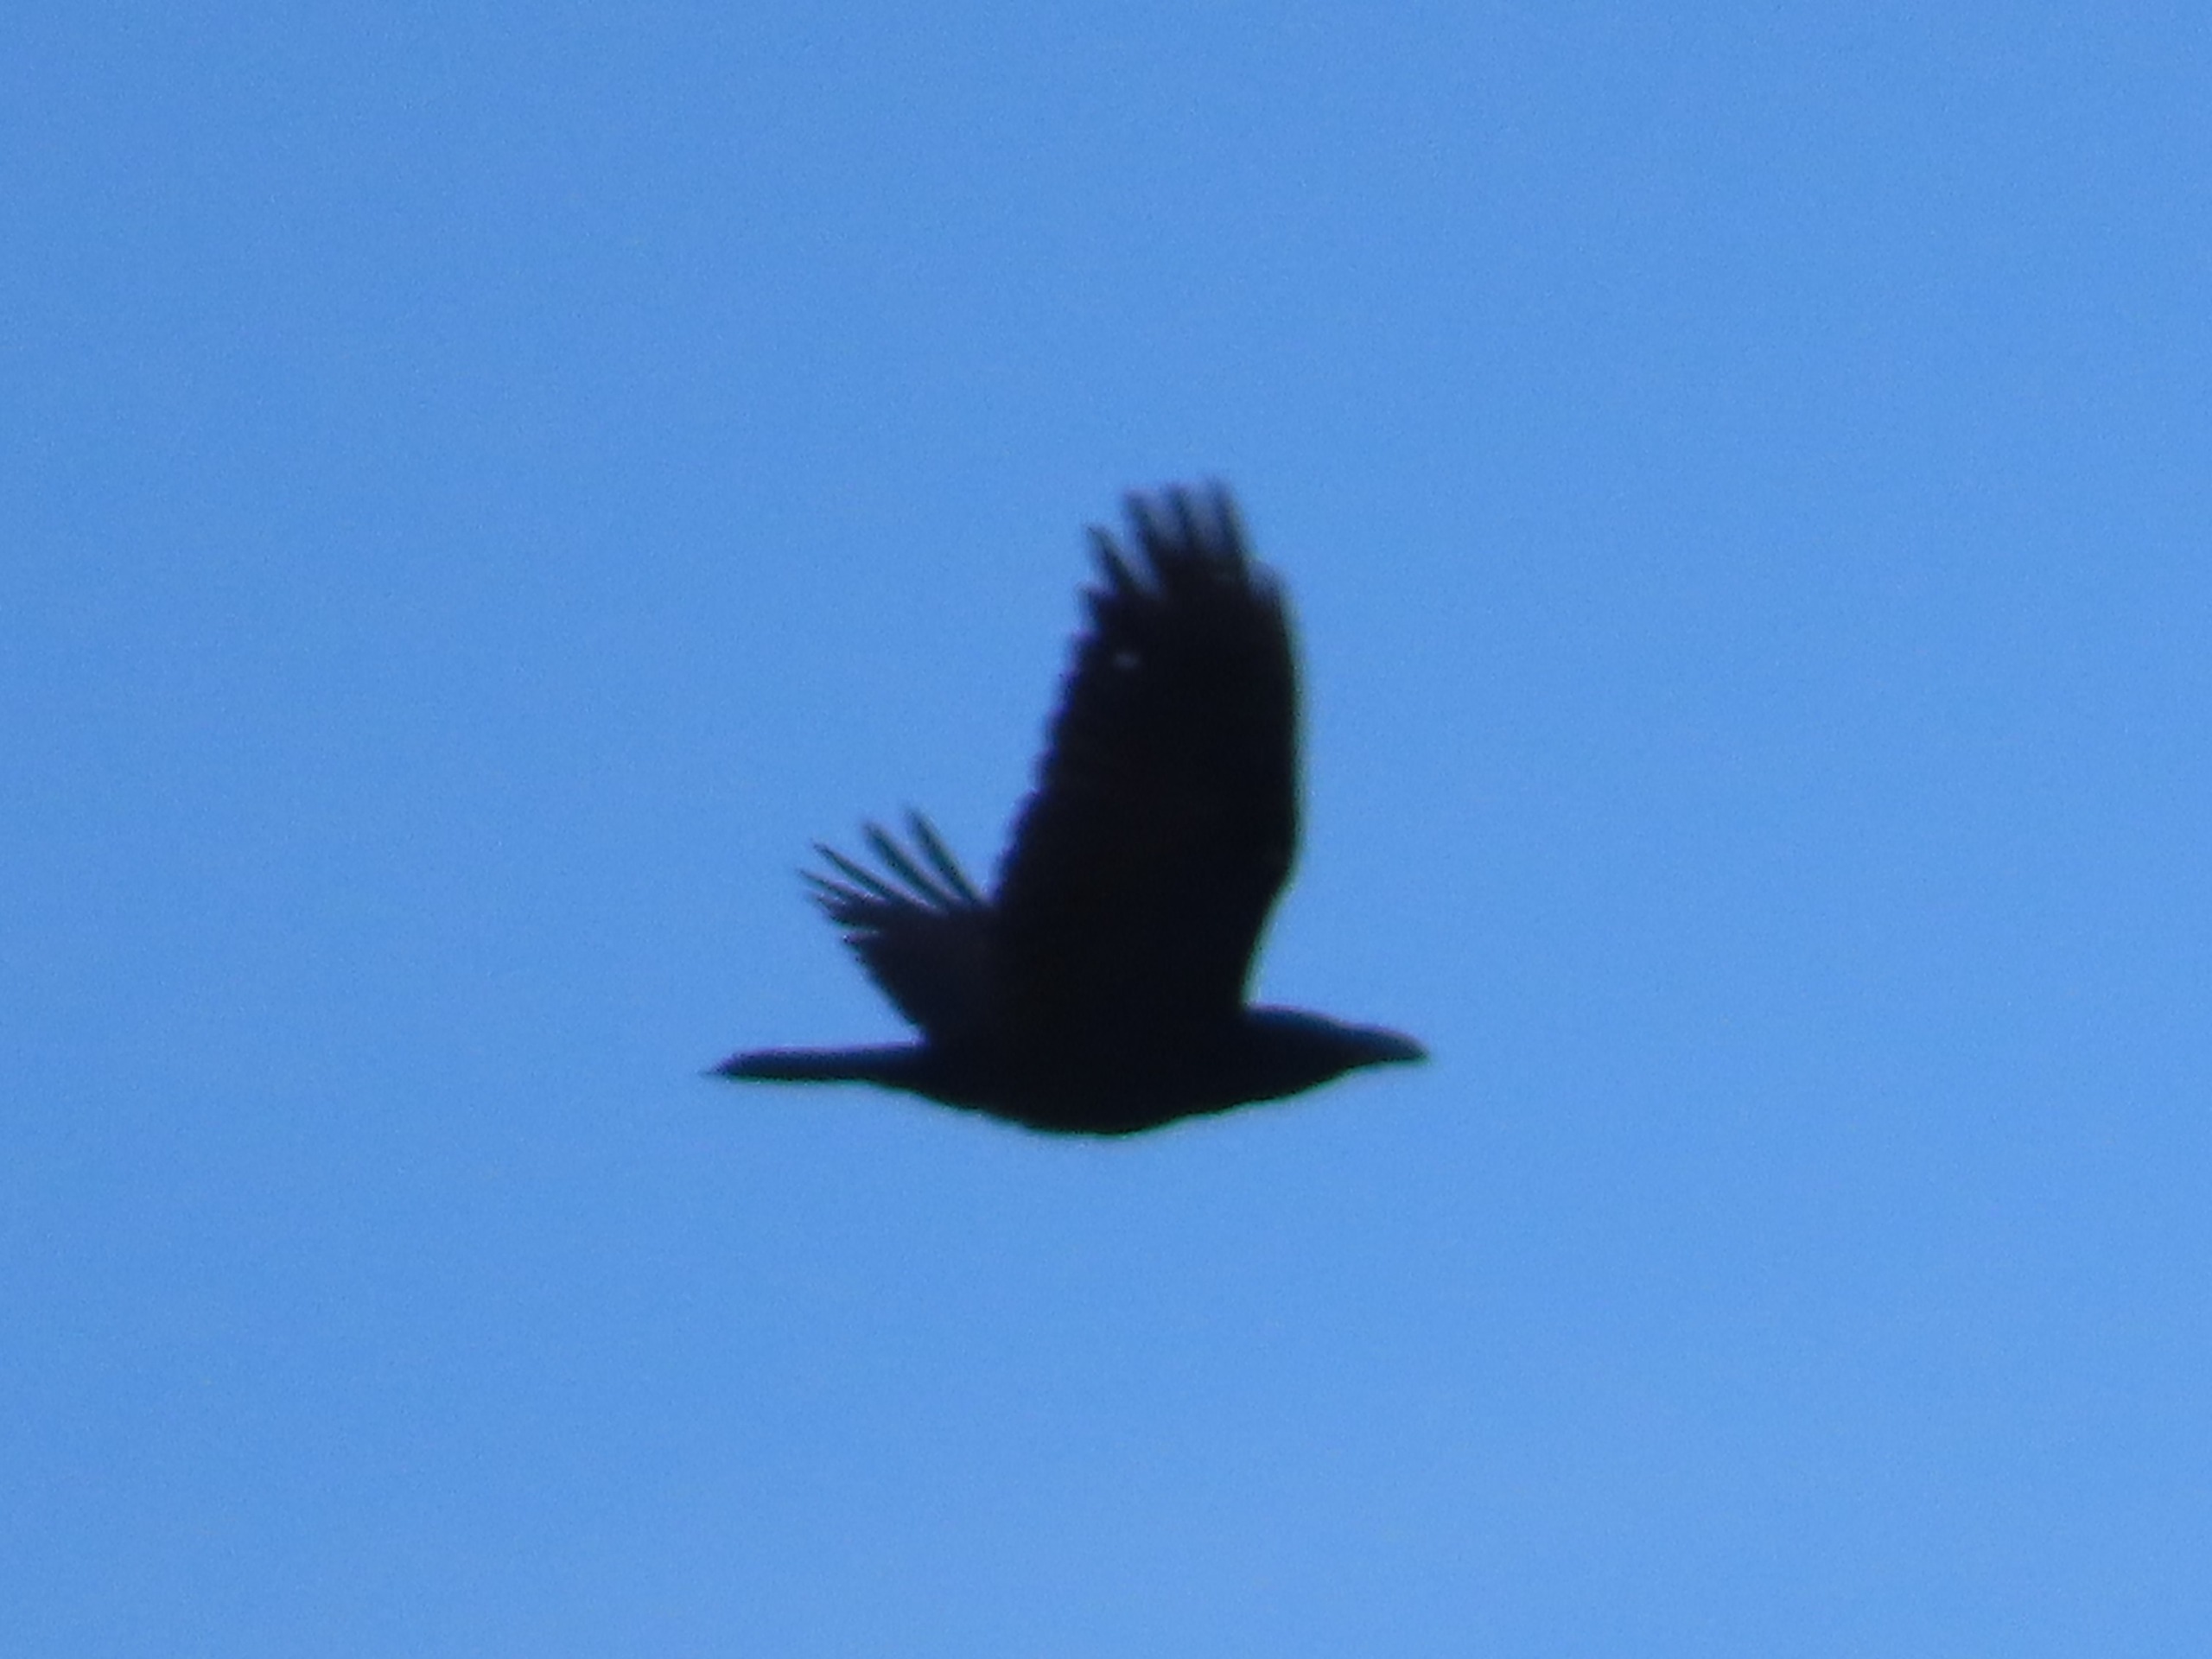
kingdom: Animalia
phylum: Chordata
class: Aves
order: Passeriformes
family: Corvidae
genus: Corvus
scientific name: Corvus corax
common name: Ravn
